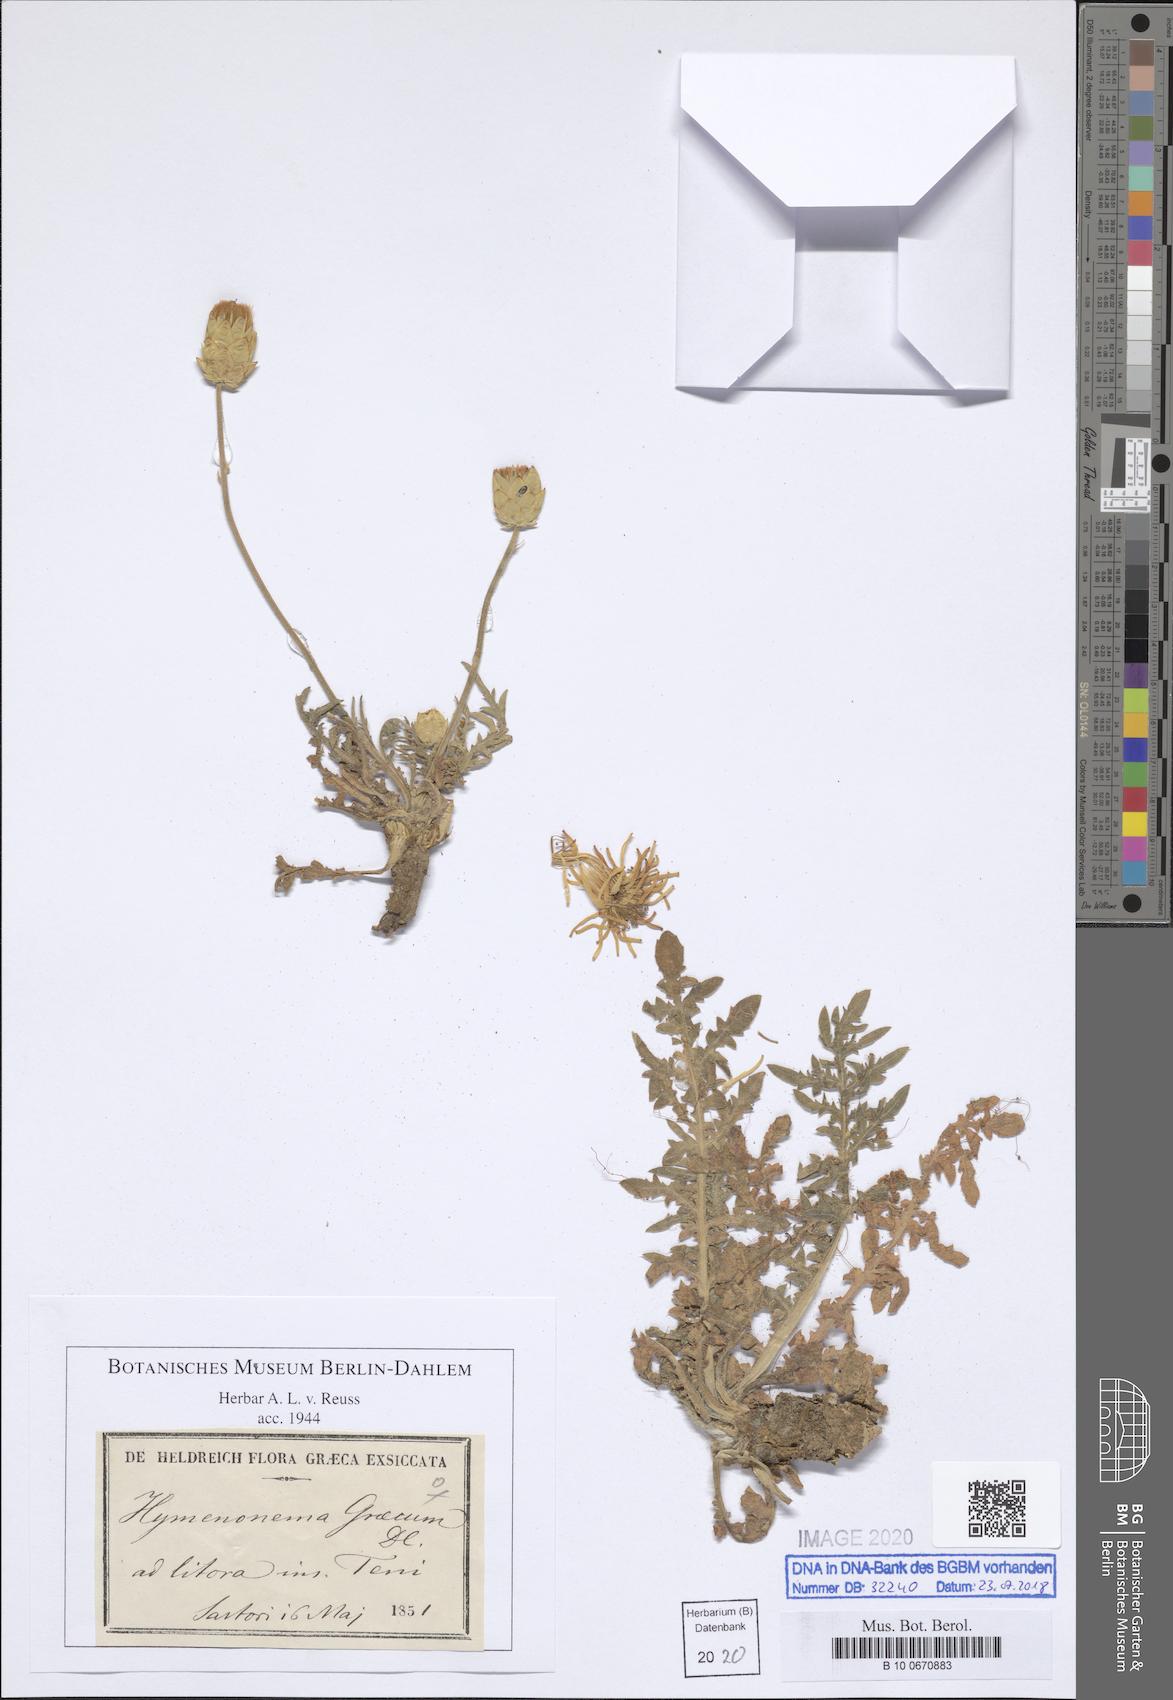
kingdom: Plantae
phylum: Tracheophyta
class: Magnoliopsida
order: Asterales
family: Asteraceae
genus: Hymenonema
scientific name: Hymenonema graecum
